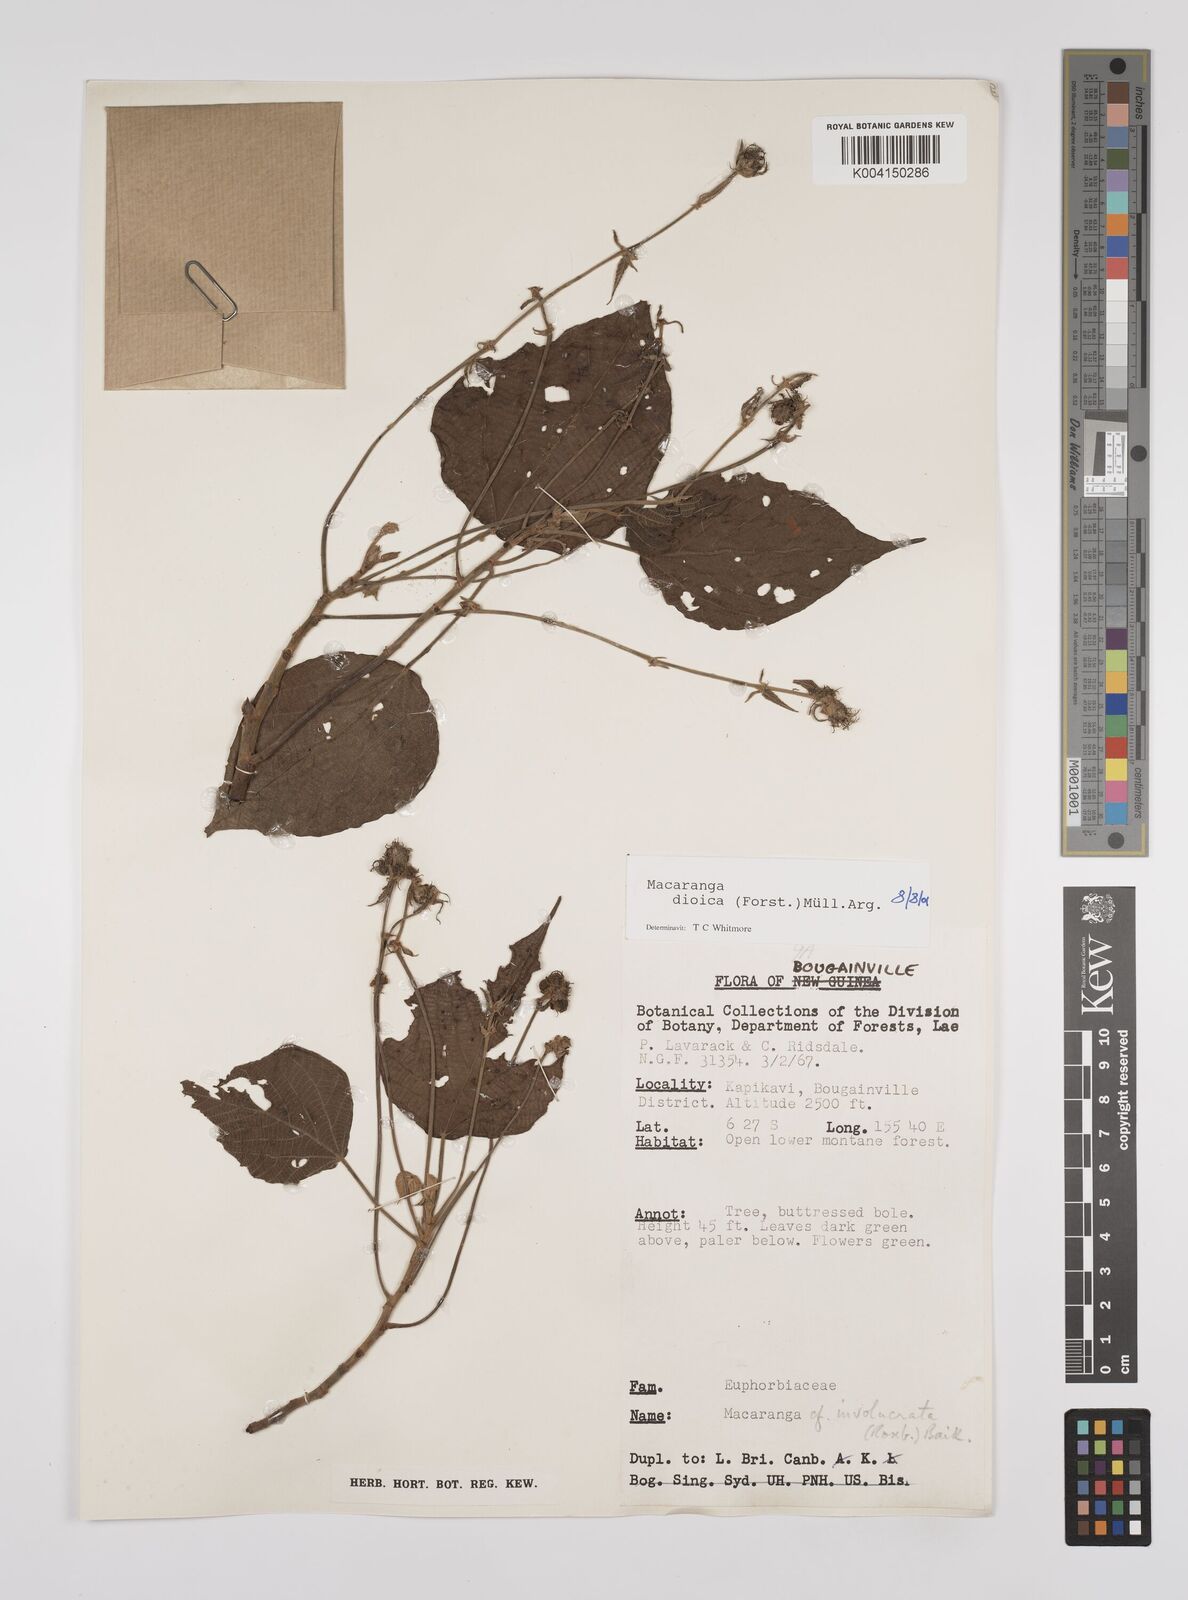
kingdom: Plantae
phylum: Tracheophyta
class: Magnoliopsida
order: Malpighiales
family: Euphorbiaceae
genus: Macaranga
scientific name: Macaranga dioica
